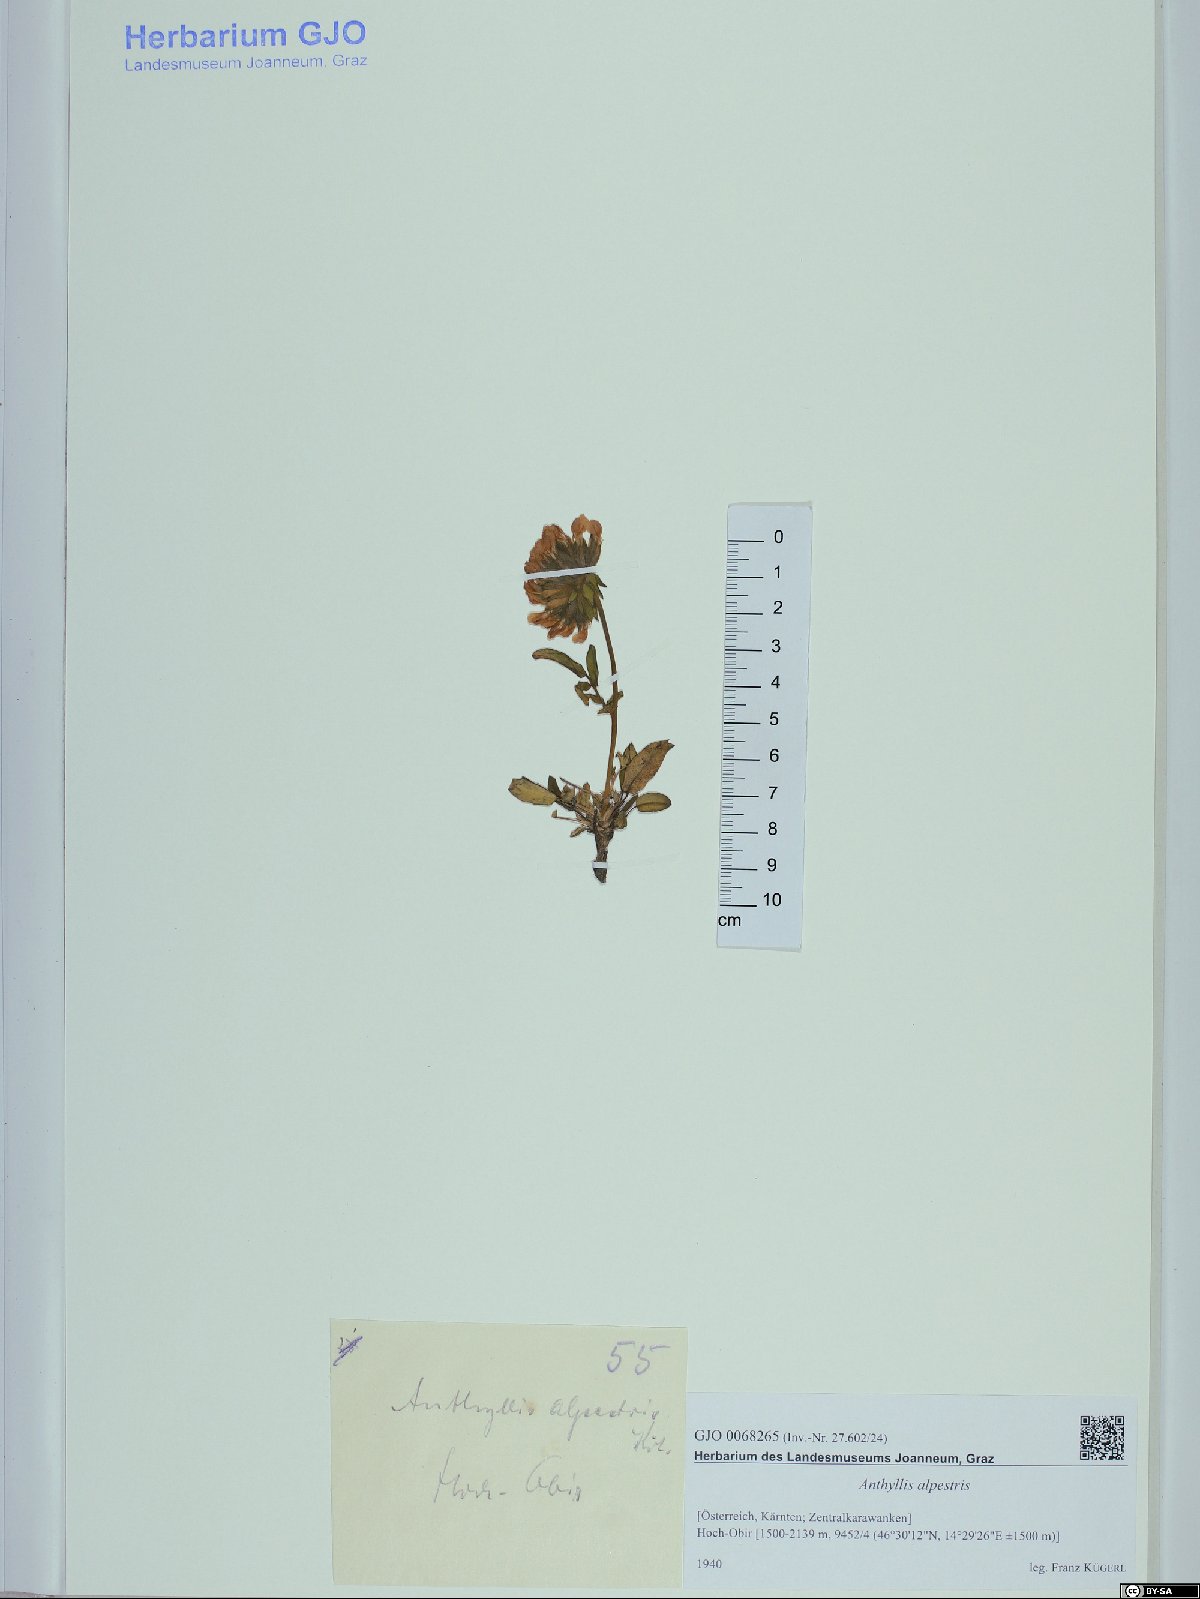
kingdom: Plantae
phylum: Tracheophyta
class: Magnoliopsida
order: Fabales
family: Fabaceae
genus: Anthyllis
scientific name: Anthyllis vulneraria
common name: Kidney vetch
